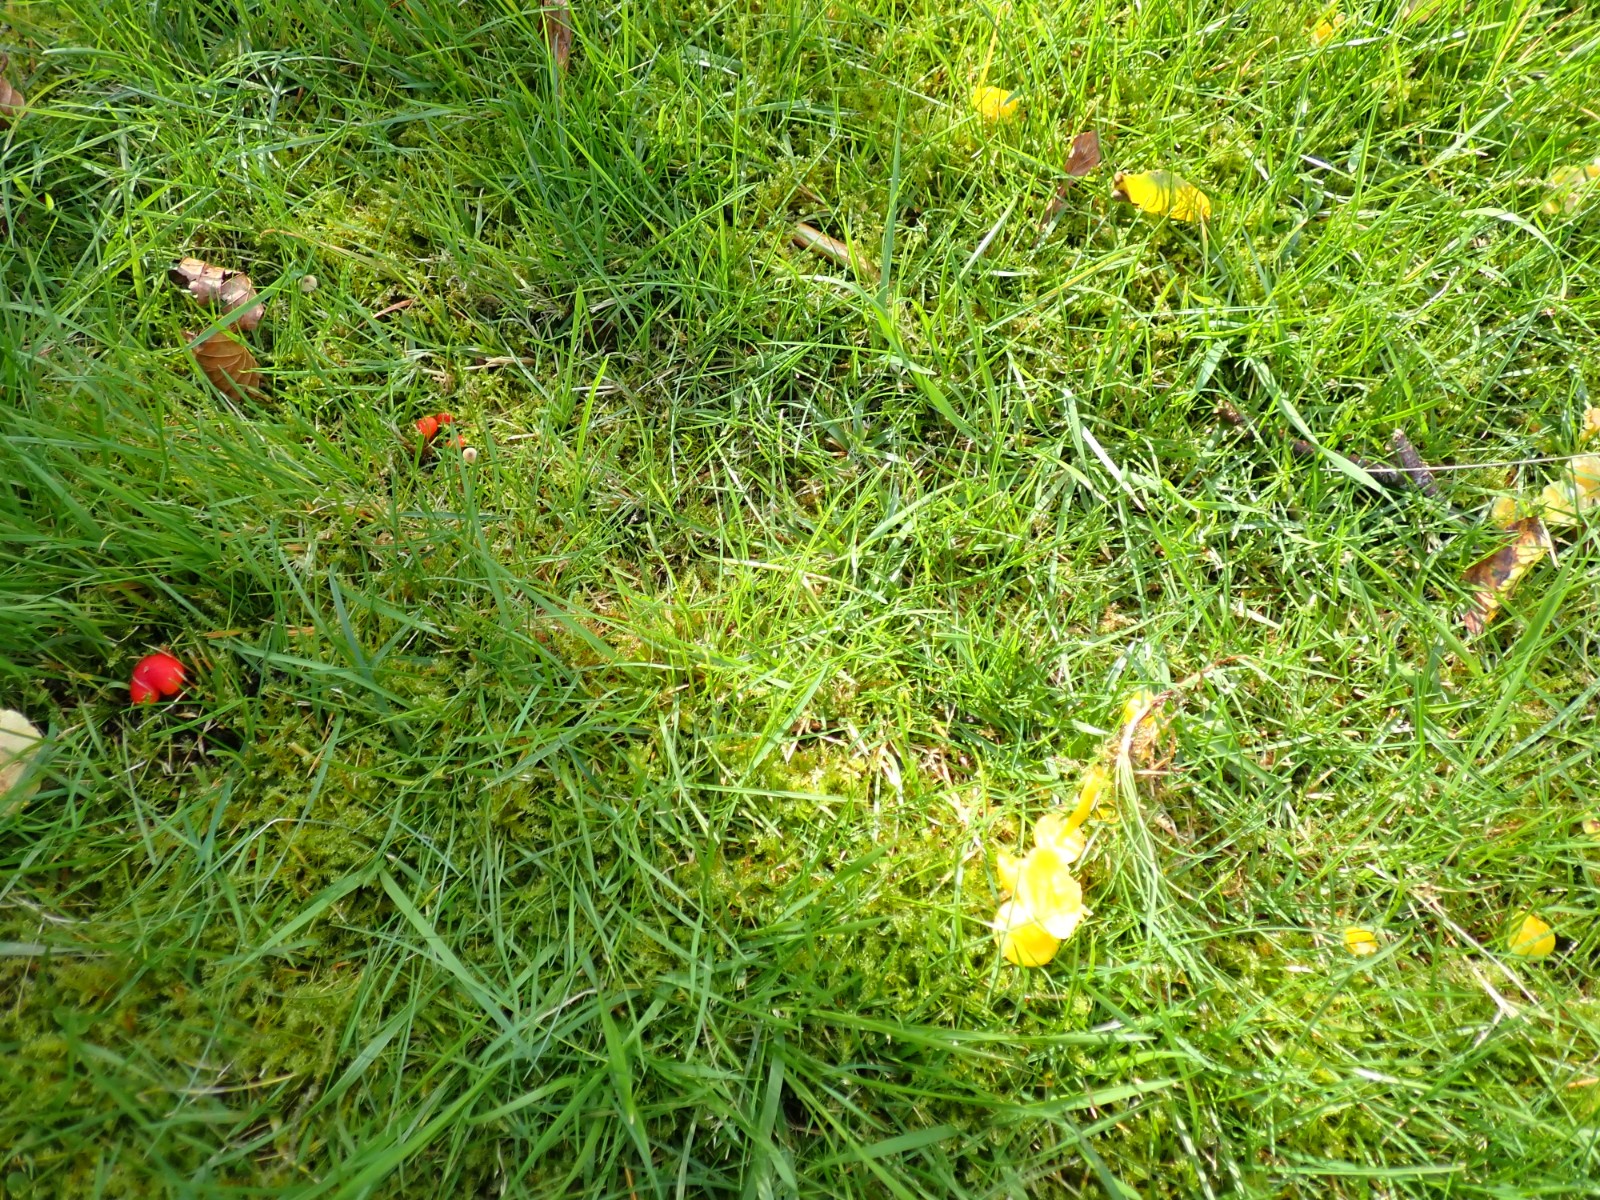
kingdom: Fungi
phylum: Basidiomycota
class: Agaricomycetes
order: Agaricales
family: Hygrophoraceae
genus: Hygrocybe
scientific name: Hygrocybe ceracea
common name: voksgul vokshat
